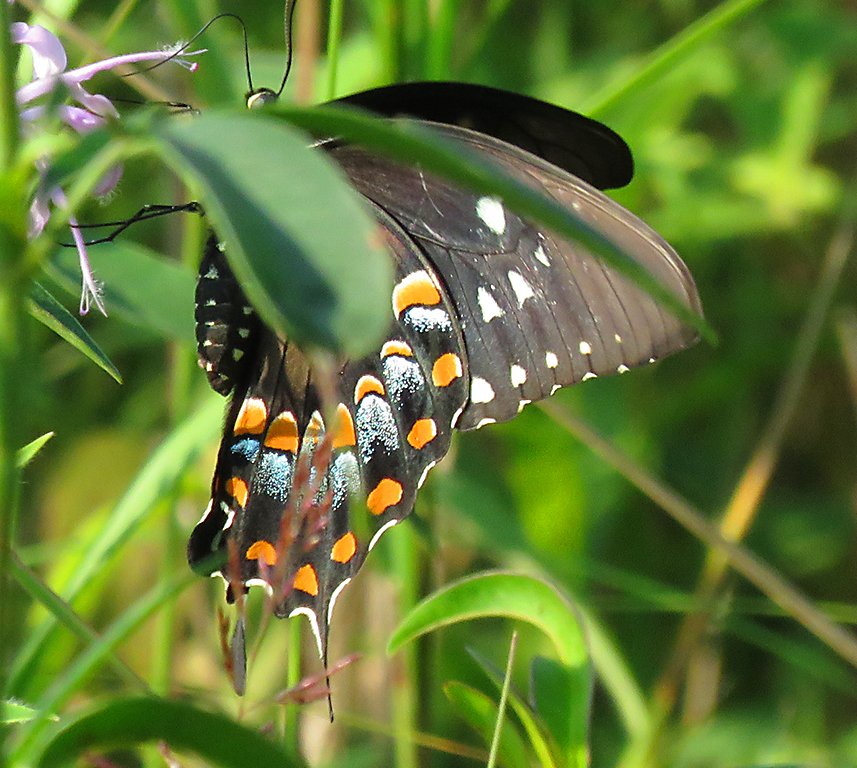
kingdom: Animalia
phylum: Arthropoda
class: Insecta
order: Lepidoptera
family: Papilionidae
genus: Pterourus
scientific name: Pterourus troilus
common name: Spicebush Swallowtail
